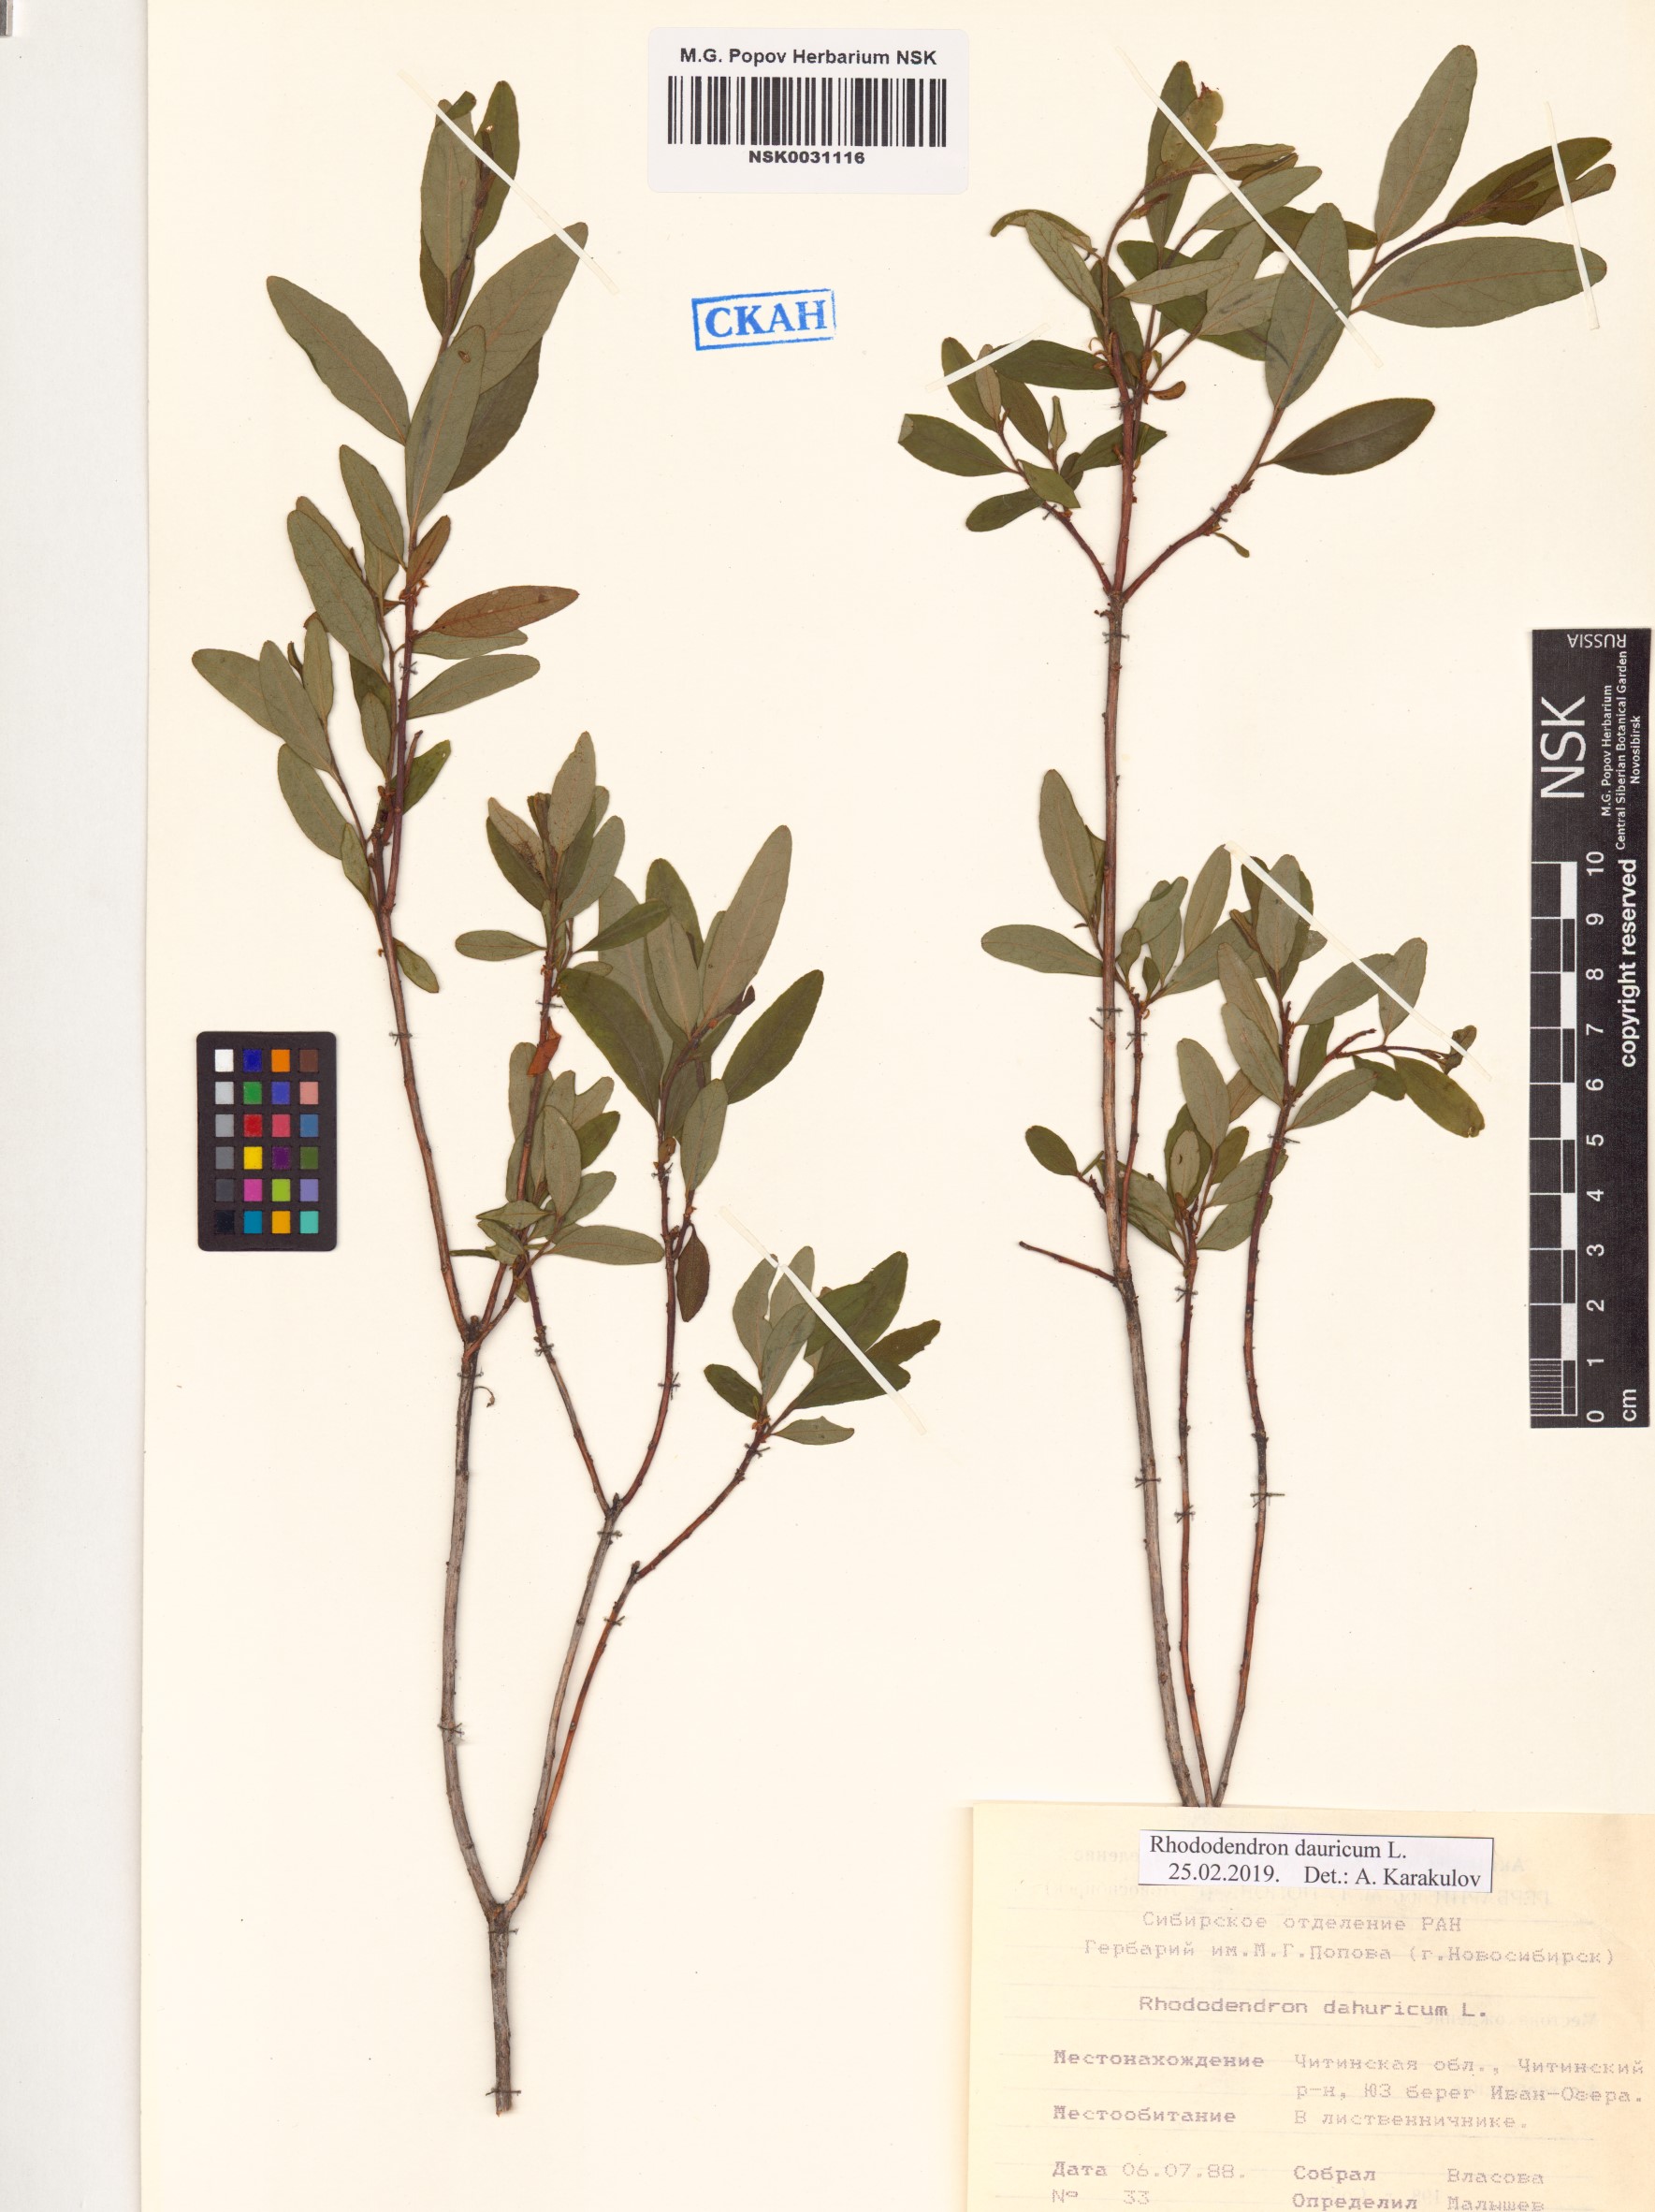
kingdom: Plantae
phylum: Tracheophyta
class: Magnoliopsida
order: Ericales
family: Ericaceae
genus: Rhododendron
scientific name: Rhododendron dauricum
